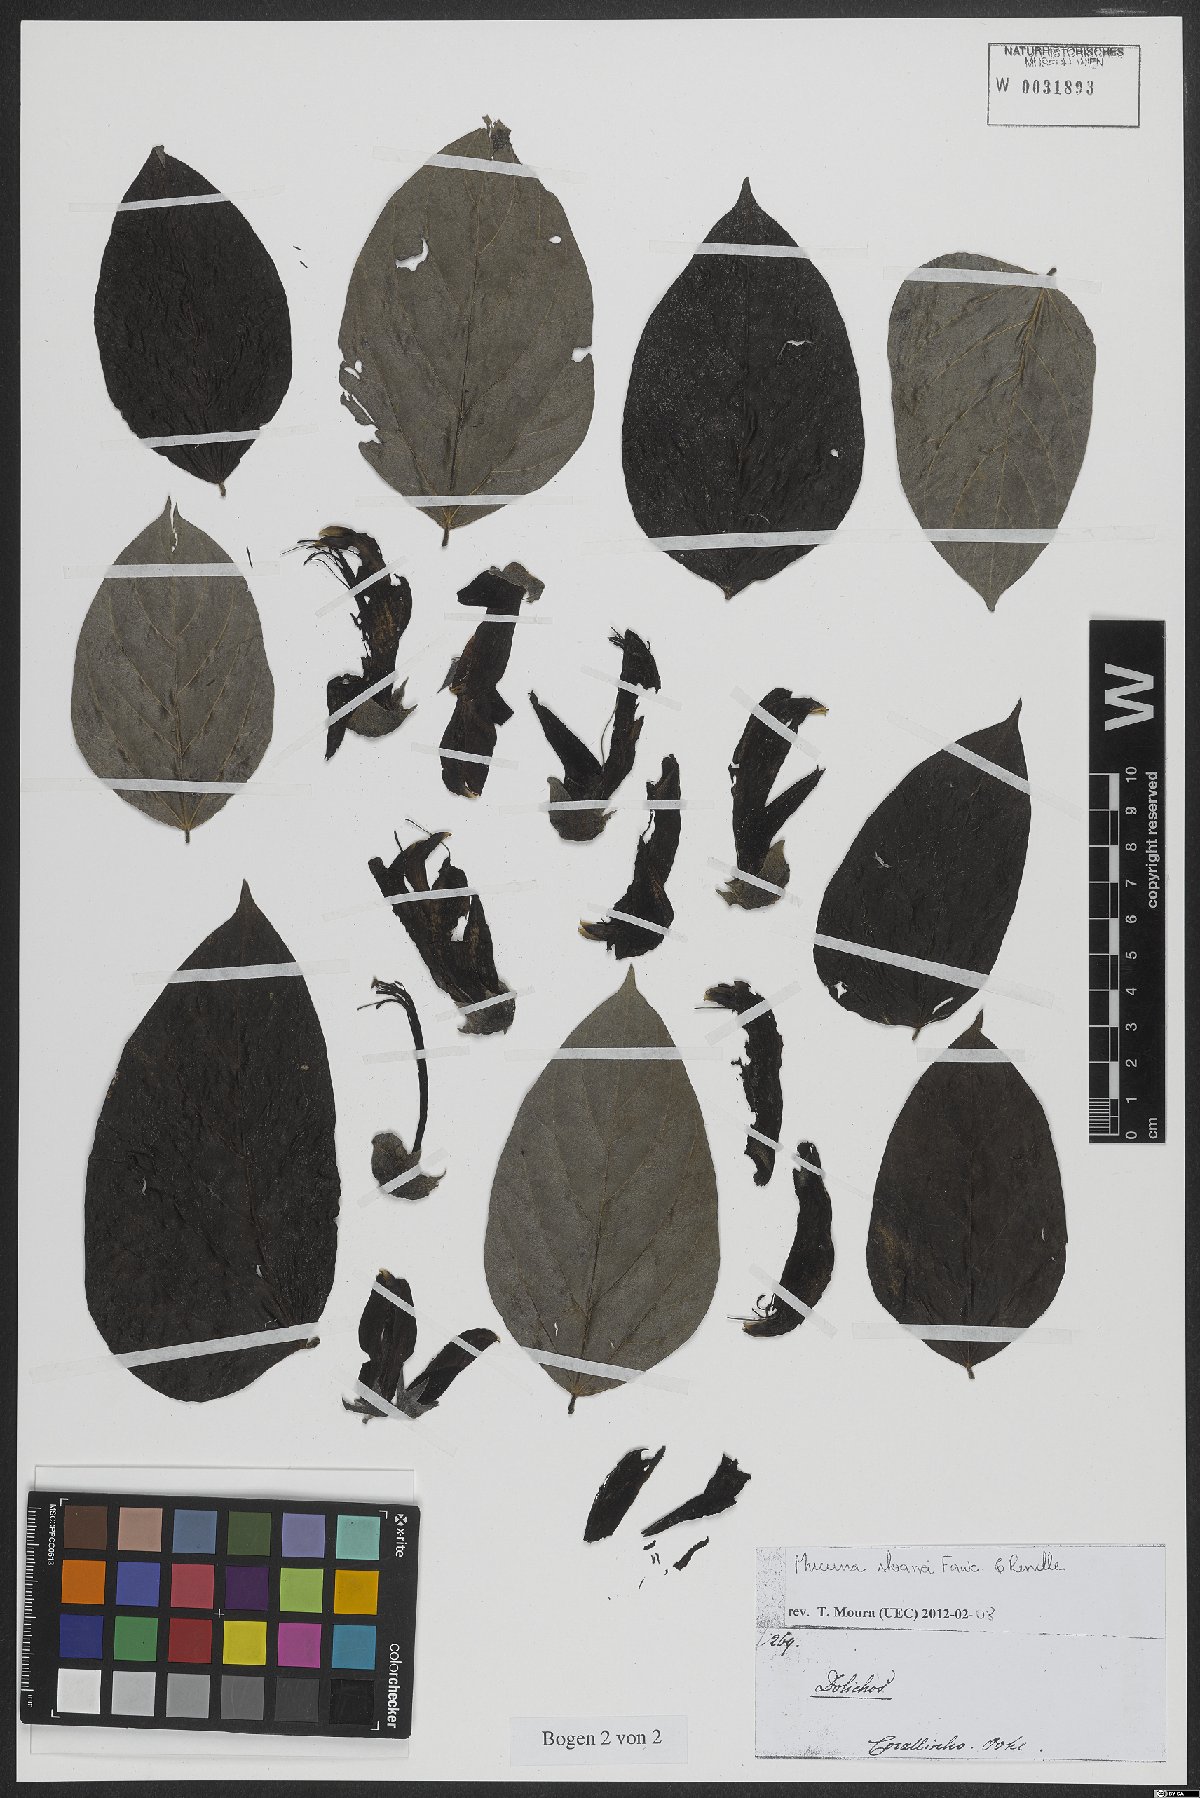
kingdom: Plantae
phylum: Tracheophyta
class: Magnoliopsida
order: Fabales
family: Fabaceae
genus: Mucuna
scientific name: Mucuna sloanei
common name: Horse-eye bean
